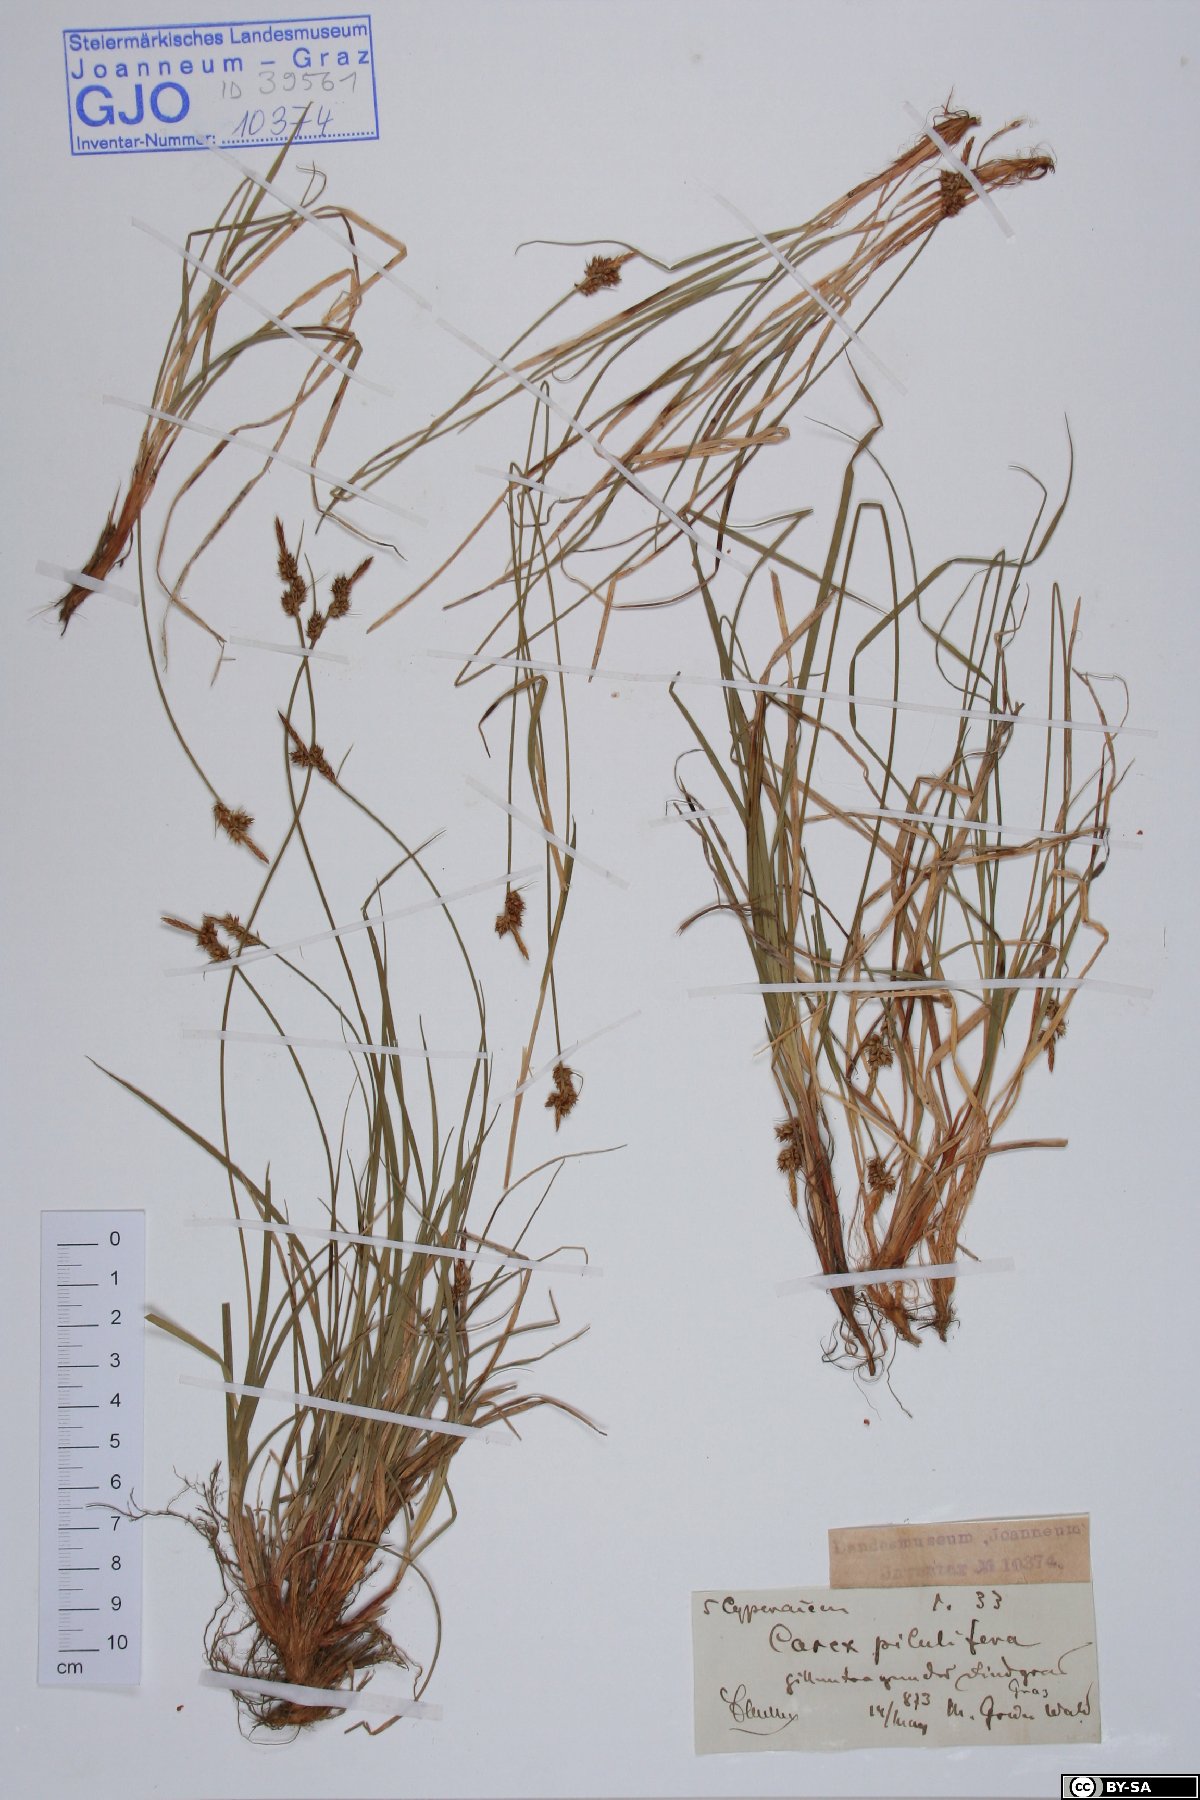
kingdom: Plantae
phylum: Tracheophyta
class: Liliopsida
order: Poales
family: Cyperaceae
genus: Carex
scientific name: Carex pilulifera
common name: Pill sedge
